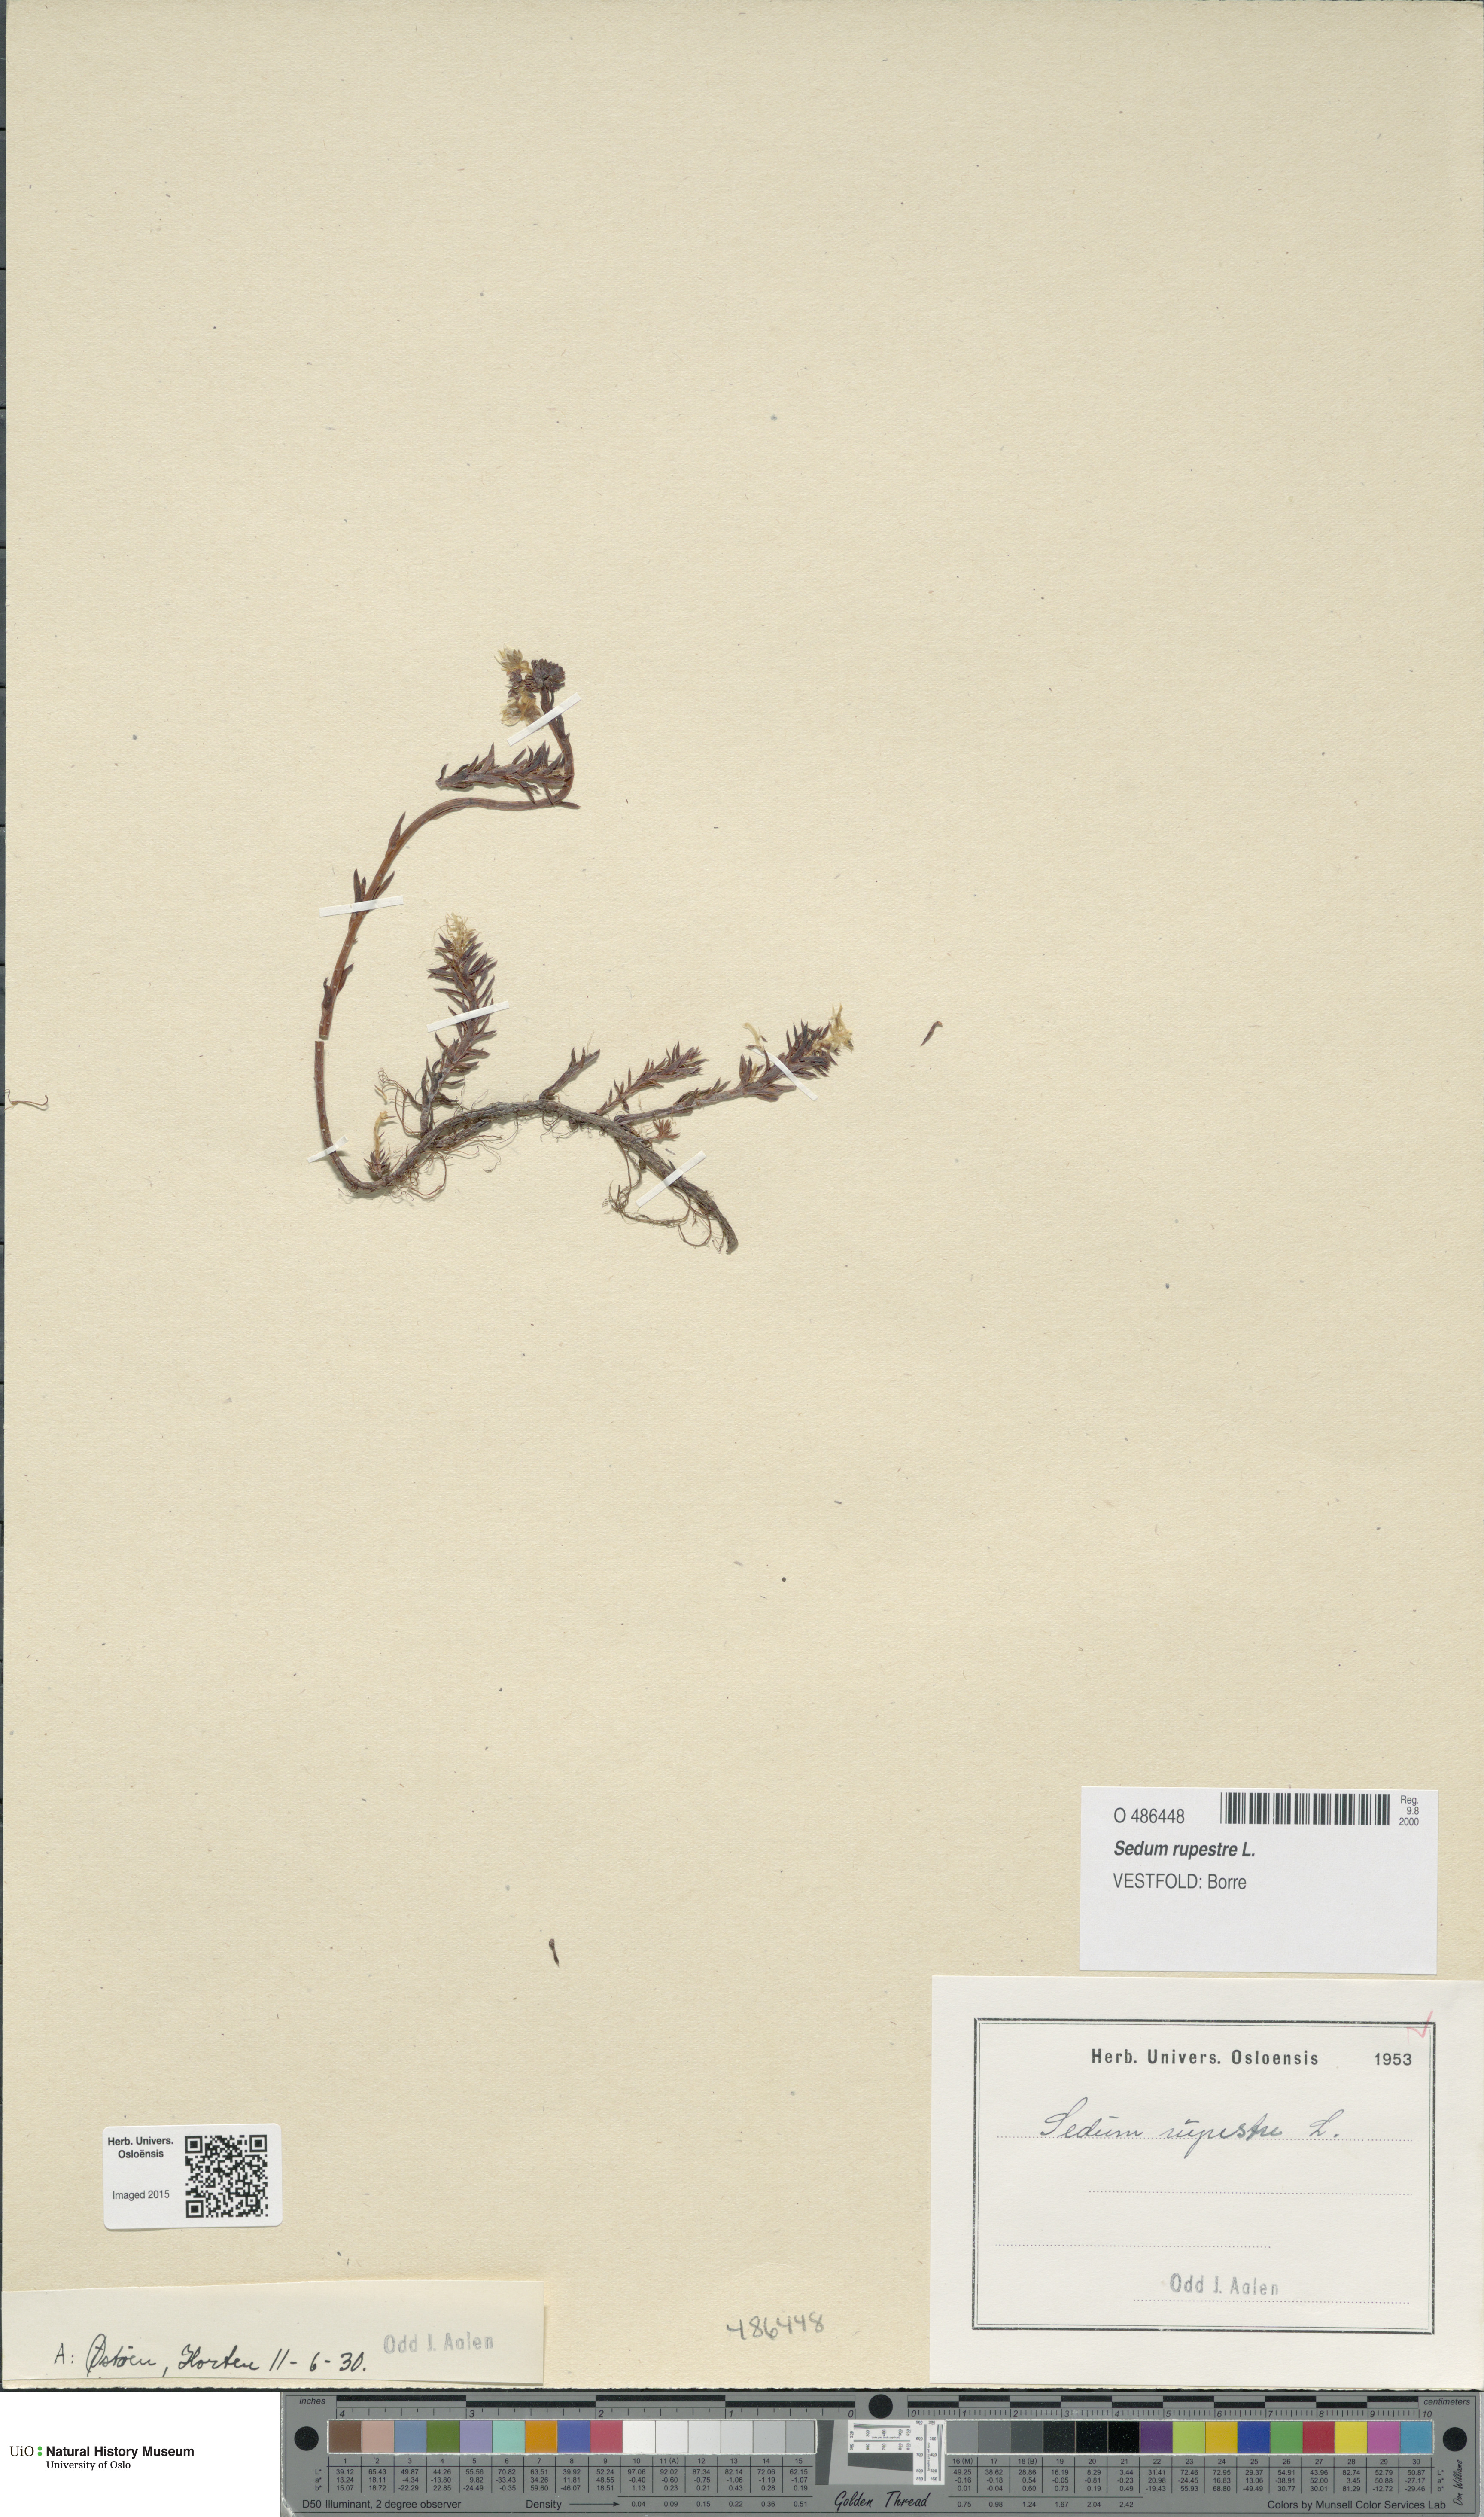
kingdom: Plantae
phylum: Tracheophyta
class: Magnoliopsida
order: Saxifragales
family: Crassulaceae
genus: Petrosedum
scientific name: Petrosedum rupestre
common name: Jenny's stonecrop
